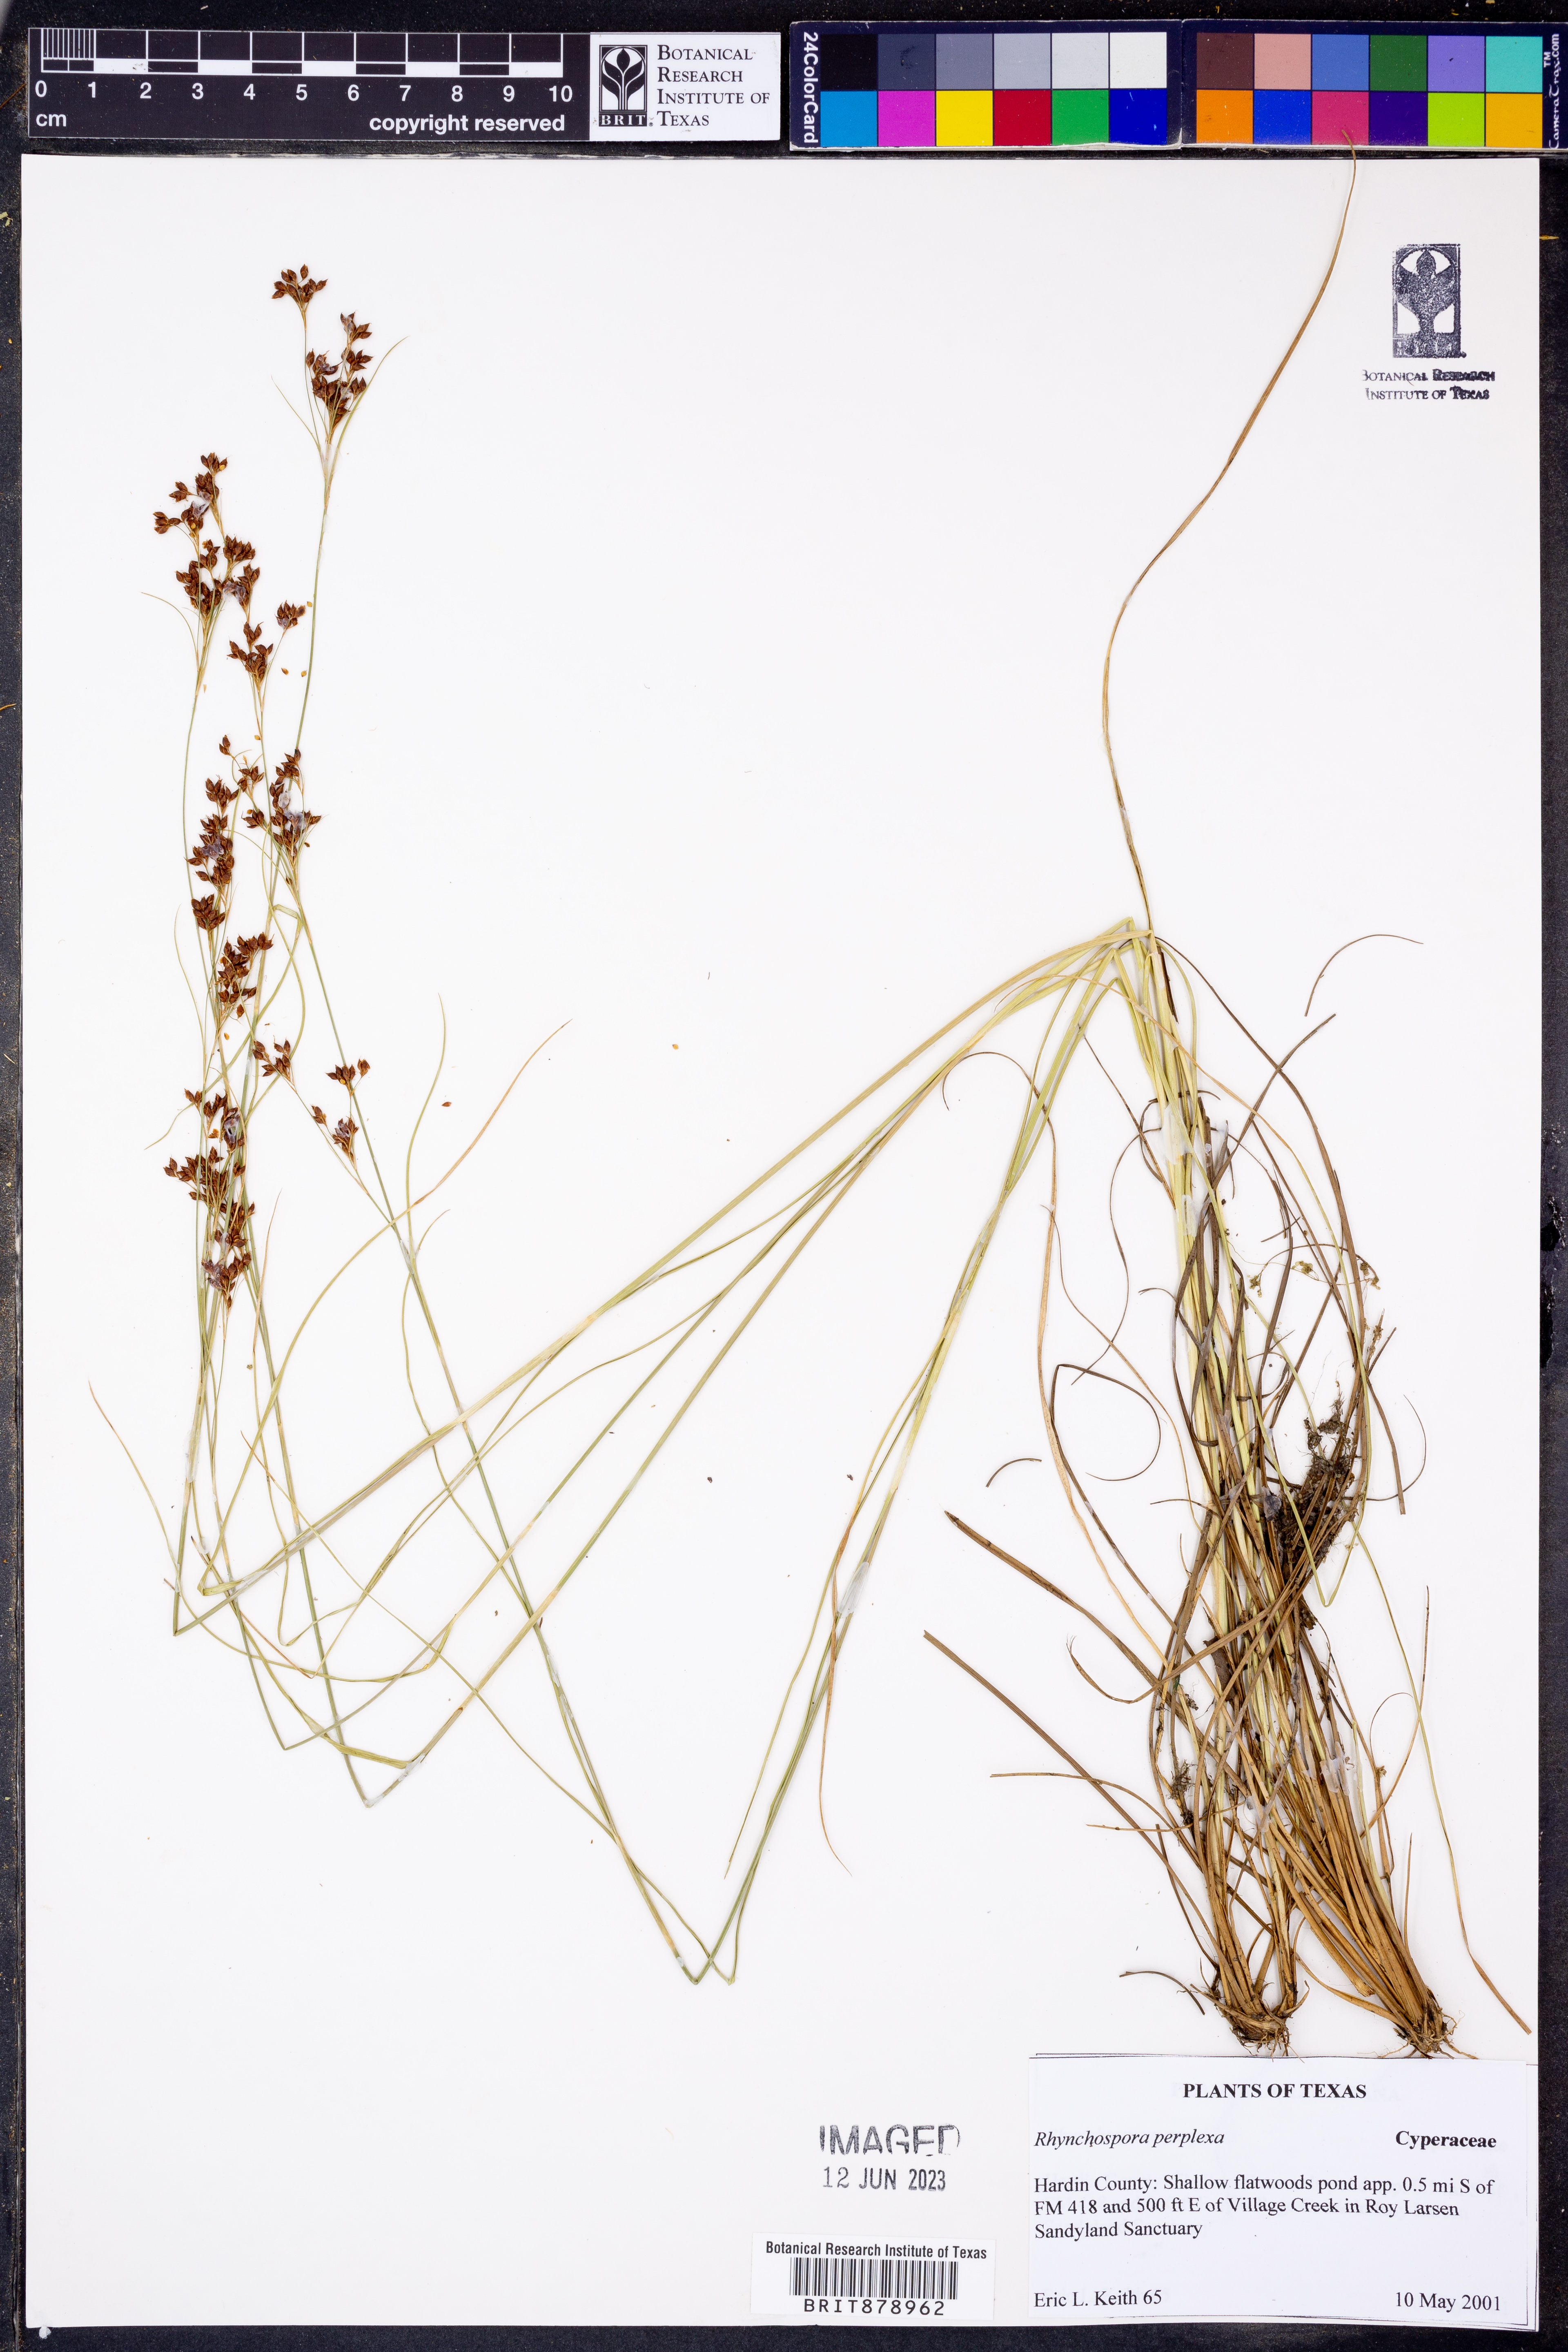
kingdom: Plantae
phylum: Tracheophyta
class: Liliopsida
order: Poales
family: Cyperaceae
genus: Rhynchospora
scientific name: Rhynchospora perplexa
